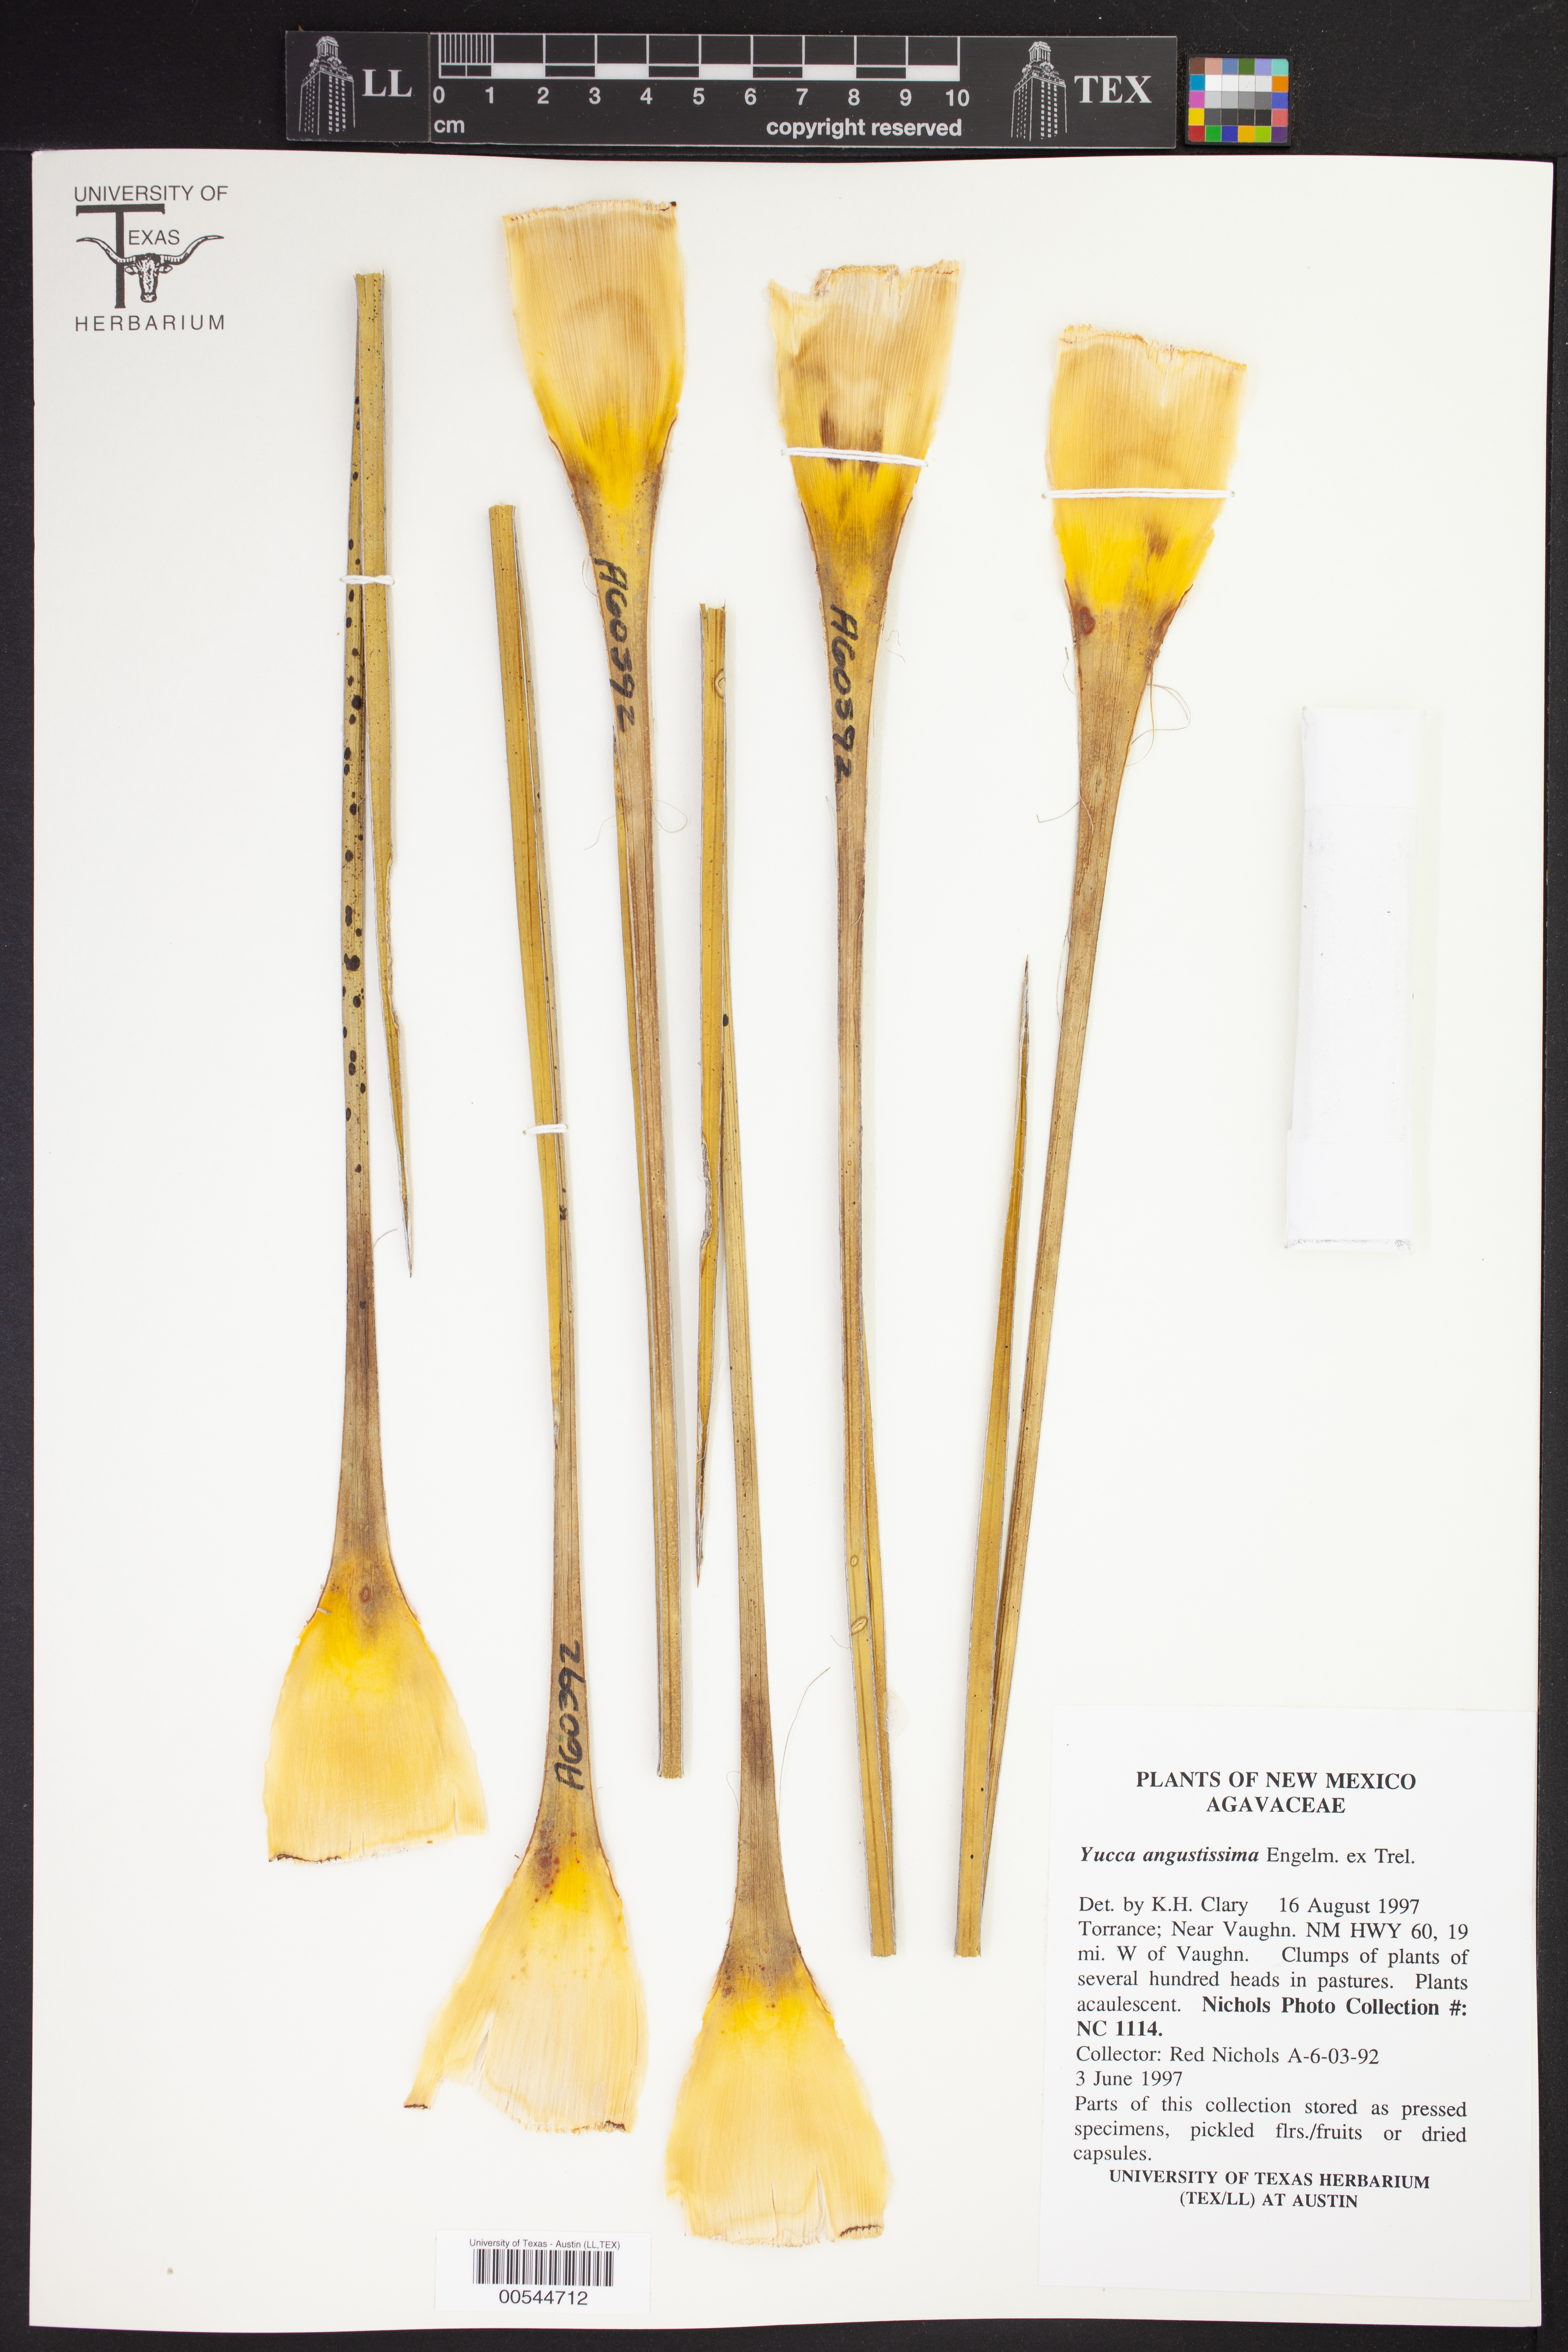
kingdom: Plantae
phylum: Tracheophyta
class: Liliopsida
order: Asparagales
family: Asparagaceae
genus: Yucca
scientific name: Yucca angustissima
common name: Narrowleaf yucca
